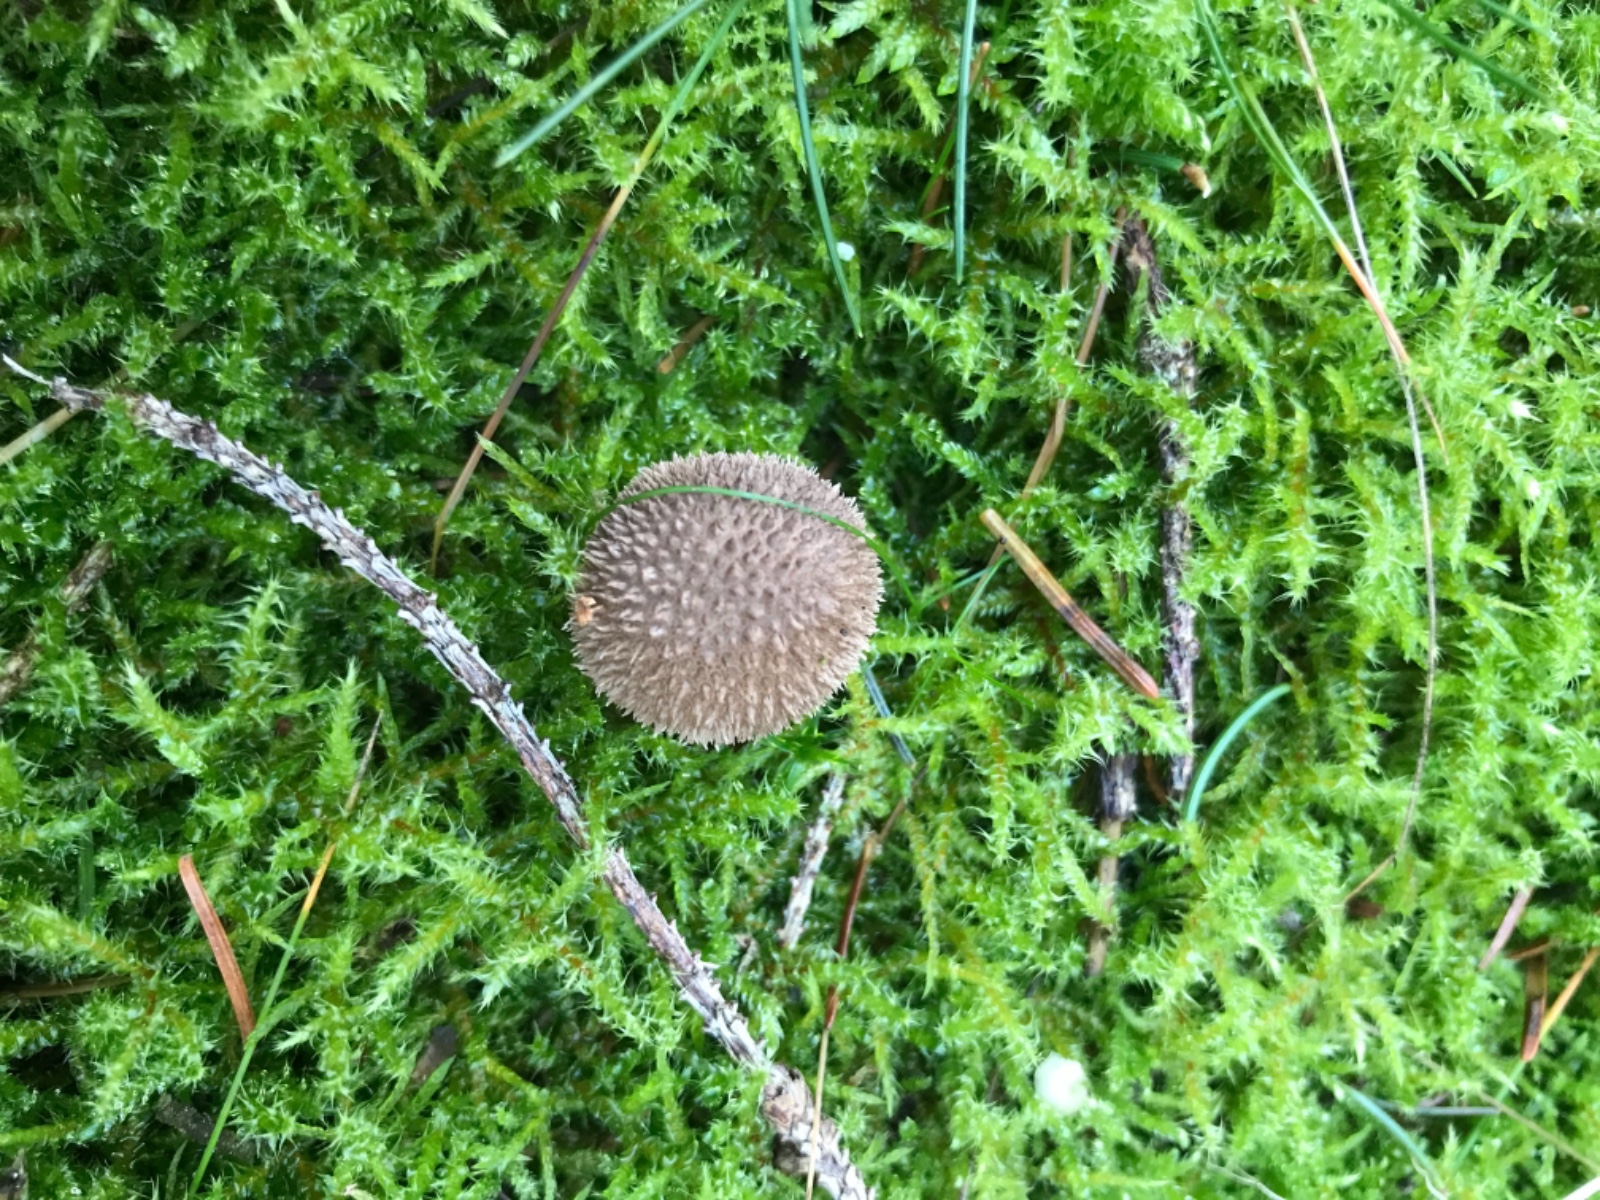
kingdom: Fungi
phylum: Basidiomycota
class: Agaricomycetes
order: Agaricales
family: Lycoperdaceae
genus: Lycoperdon
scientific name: Lycoperdon nigrescens
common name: sortagtig støvbold
